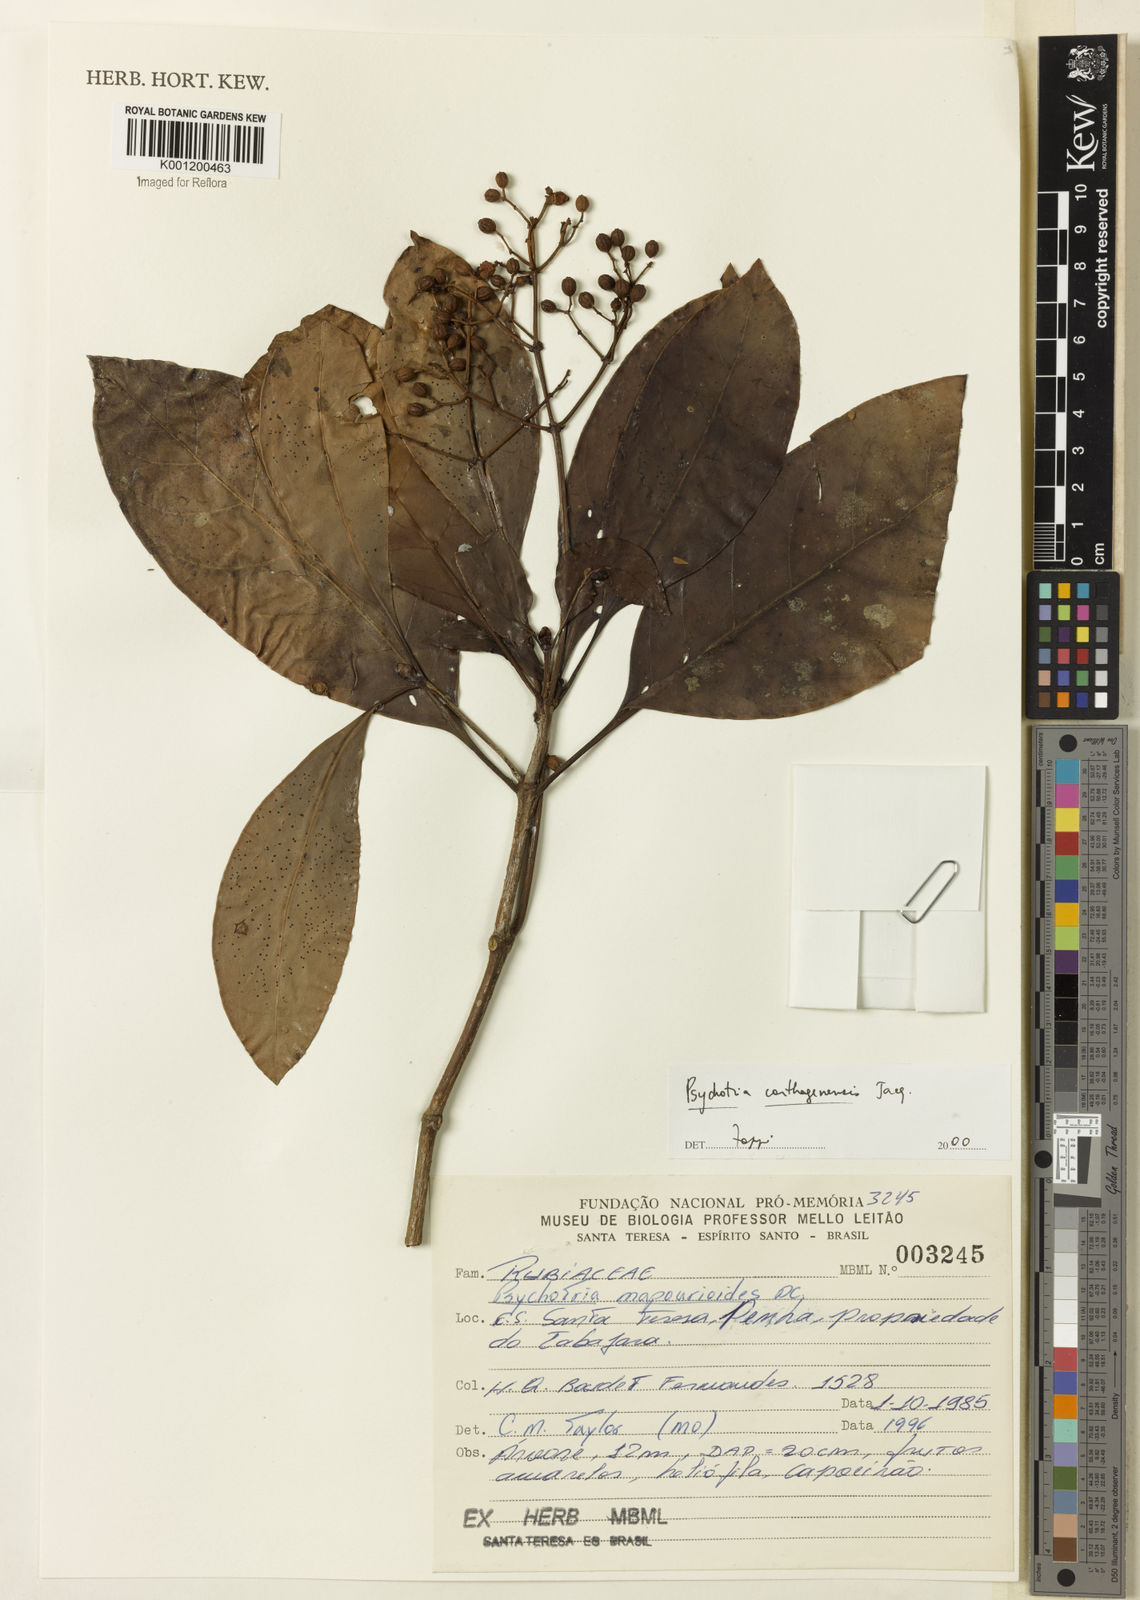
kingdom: Plantae
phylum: Tracheophyta
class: Magnoliopsida
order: Gentianales
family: Rubiaceae
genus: Psychotria
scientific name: Psychotria carthagenensis
